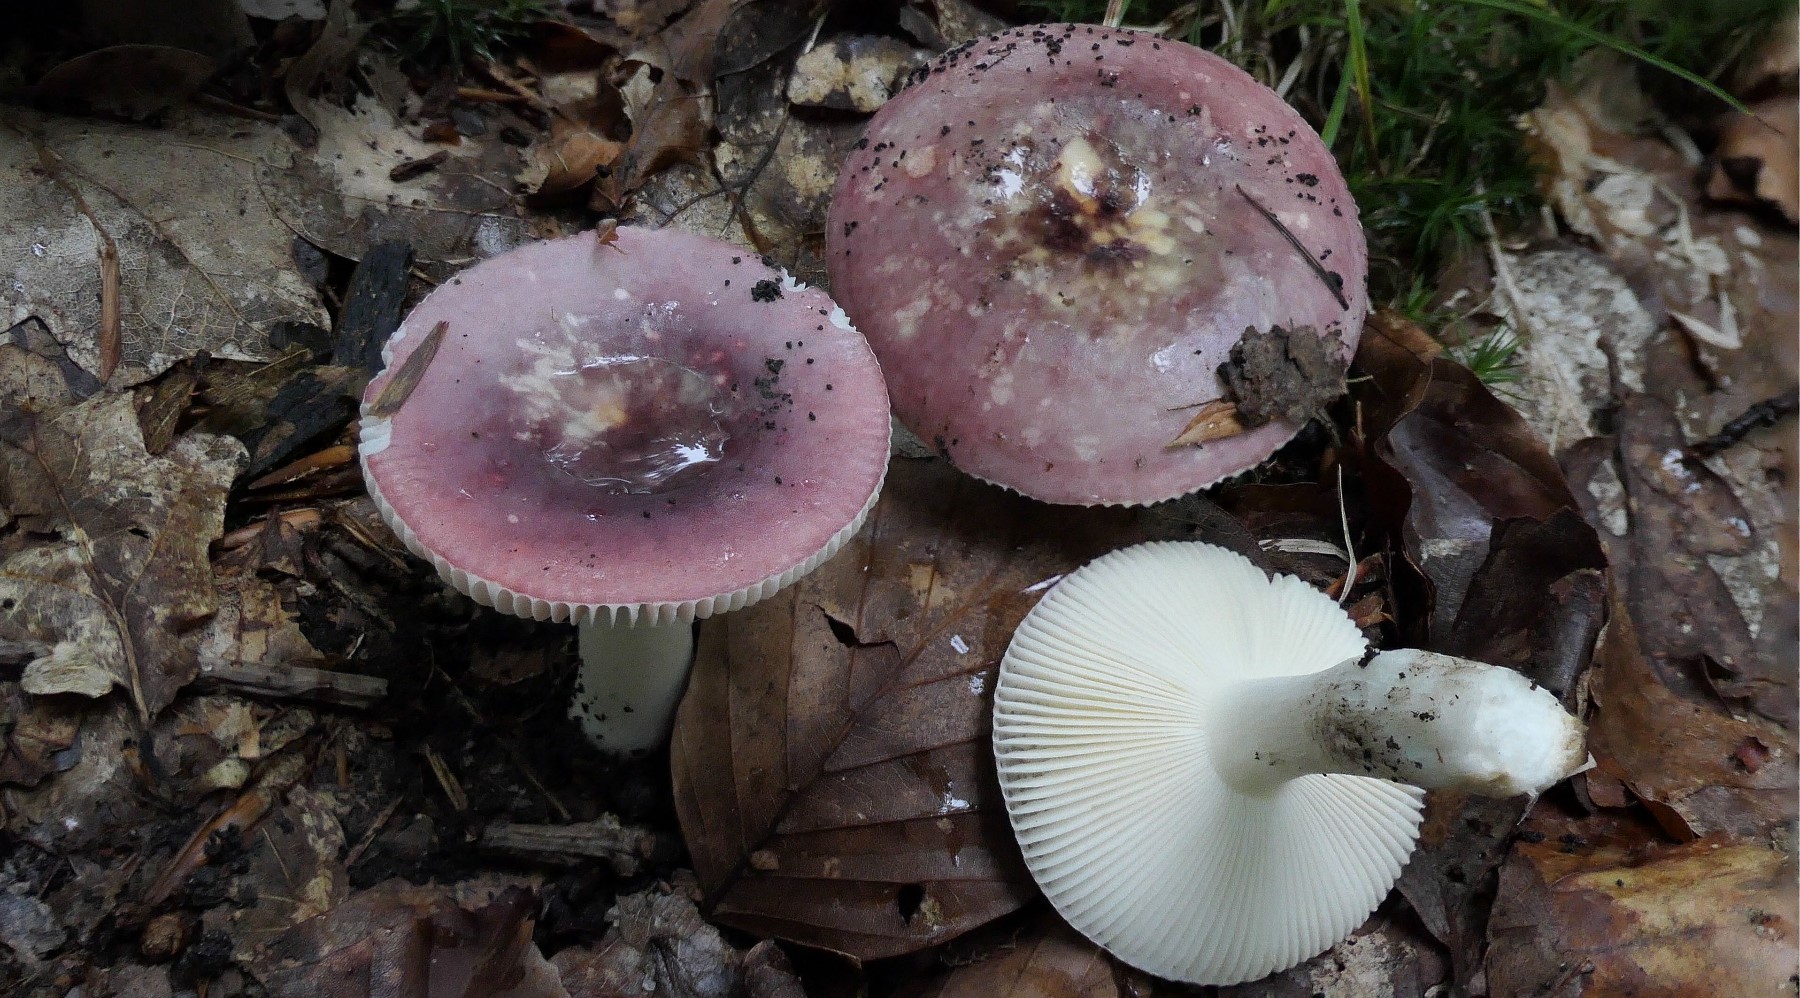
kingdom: Fungi
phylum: Basidiomycota
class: Agaricomycetes
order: Russulales
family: Russulaceae
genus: Russula
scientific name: Russula fragilis
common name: savbladet skørhat
